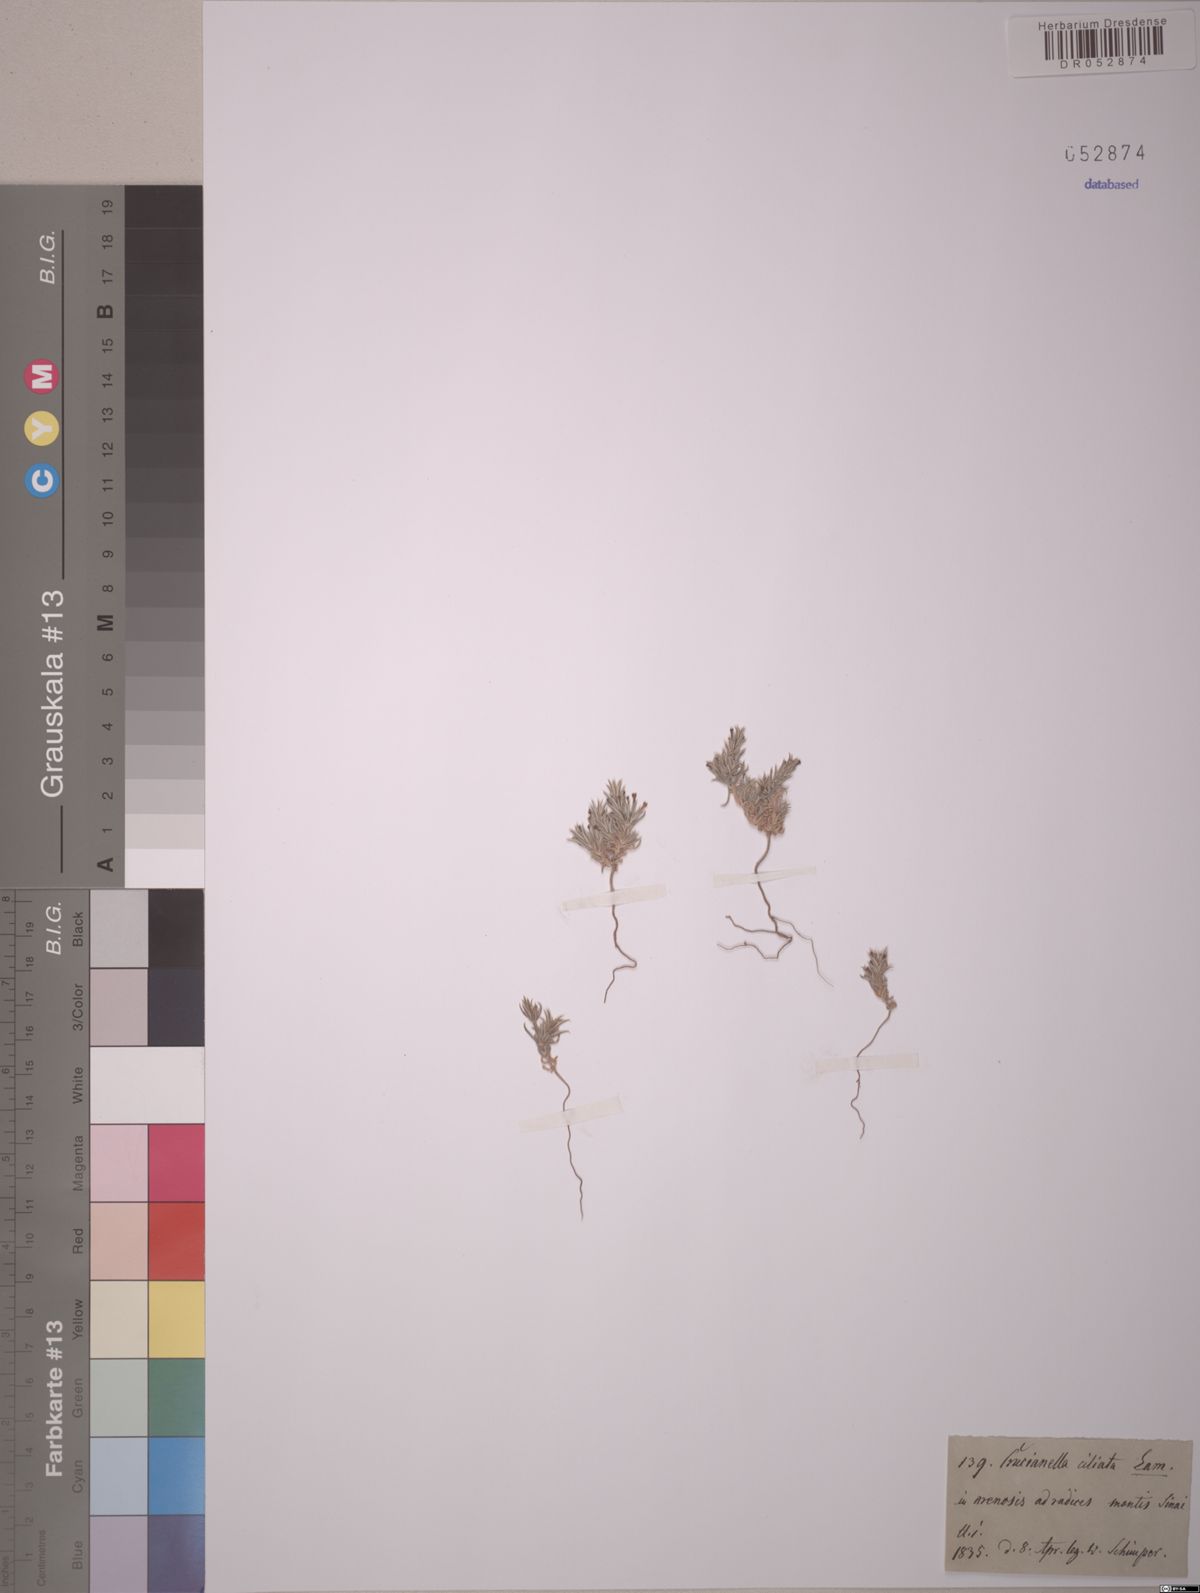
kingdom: Plantae
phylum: Tracheophyta
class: Magnoliopsida
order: Gentianales
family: Rubiaceae
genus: Crucianella
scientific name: Crucianella membranacea
